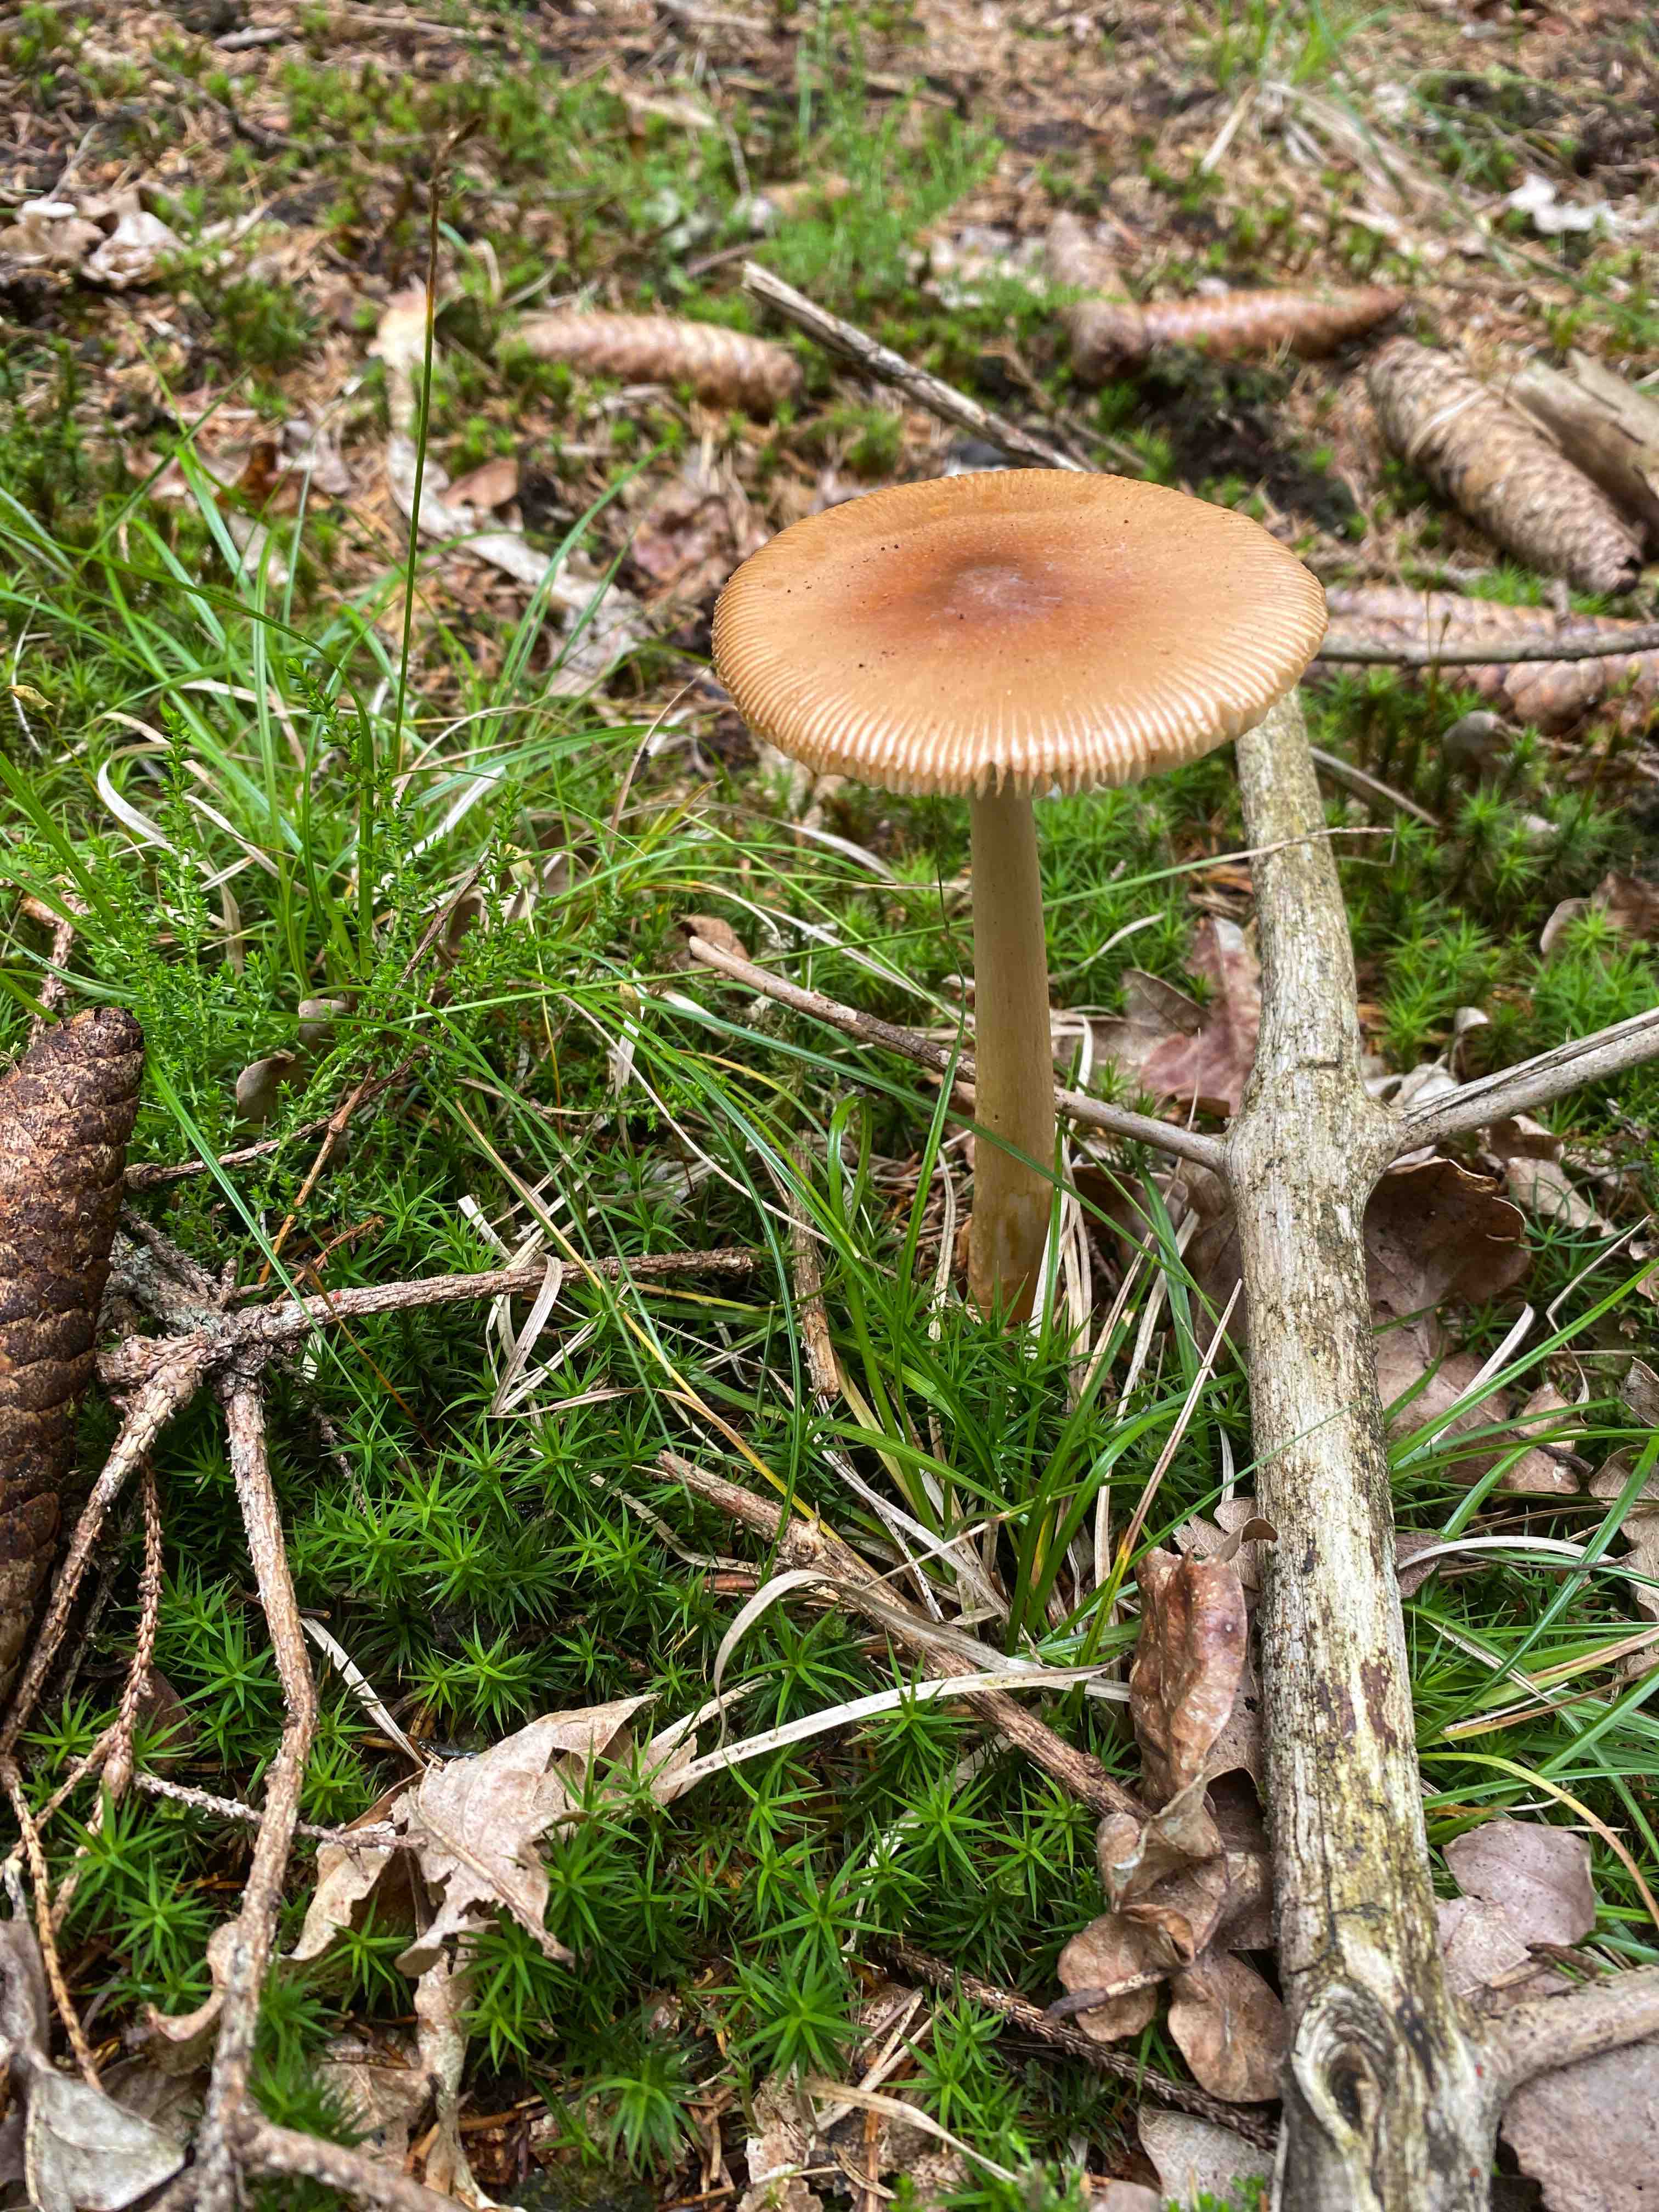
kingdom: Fungi
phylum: Basidiomycota
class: Agaricomycetes
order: Agaricales
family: Amanitaceae
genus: Amanita
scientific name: Amanita fulva
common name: brun kam-fluesvamp
